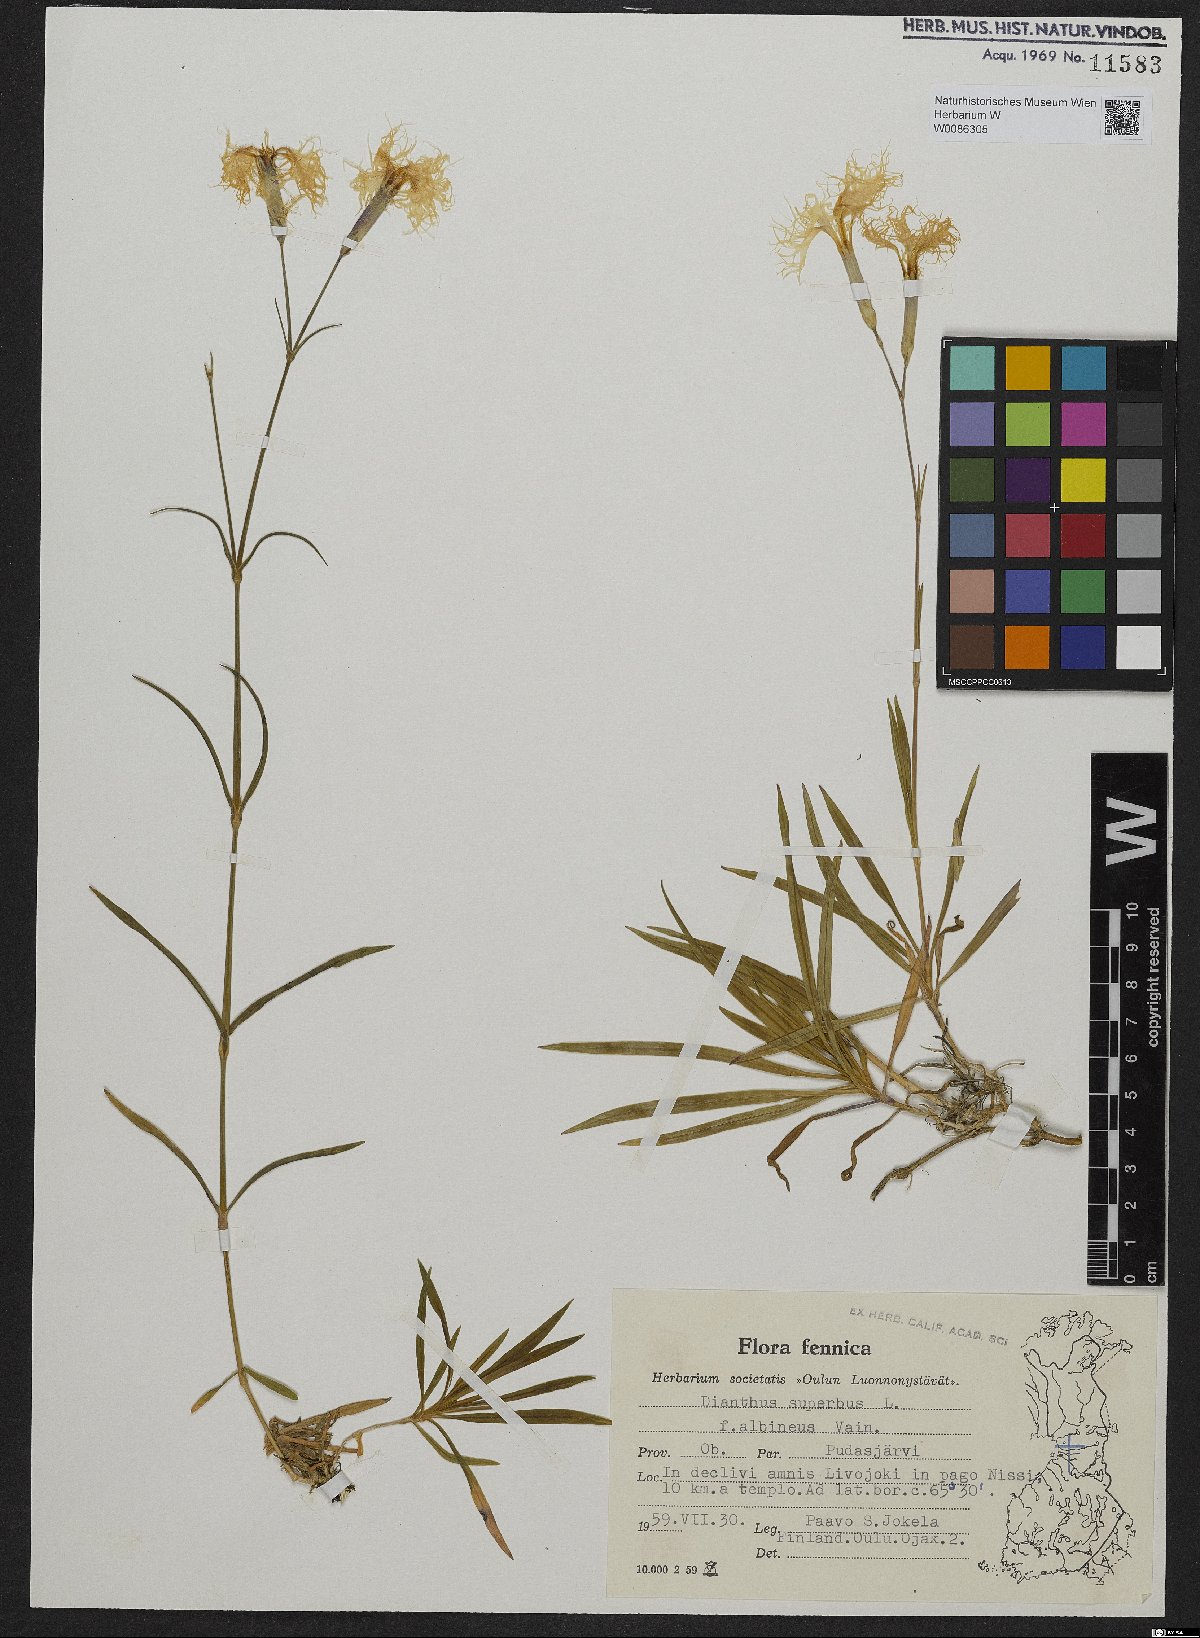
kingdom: Plantae
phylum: Tracheophyta
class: Magnoliopsida
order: Caryophyllales
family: Caryophyllaceae
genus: Dianthus
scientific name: Dianthus superbus
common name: Fringed pink
